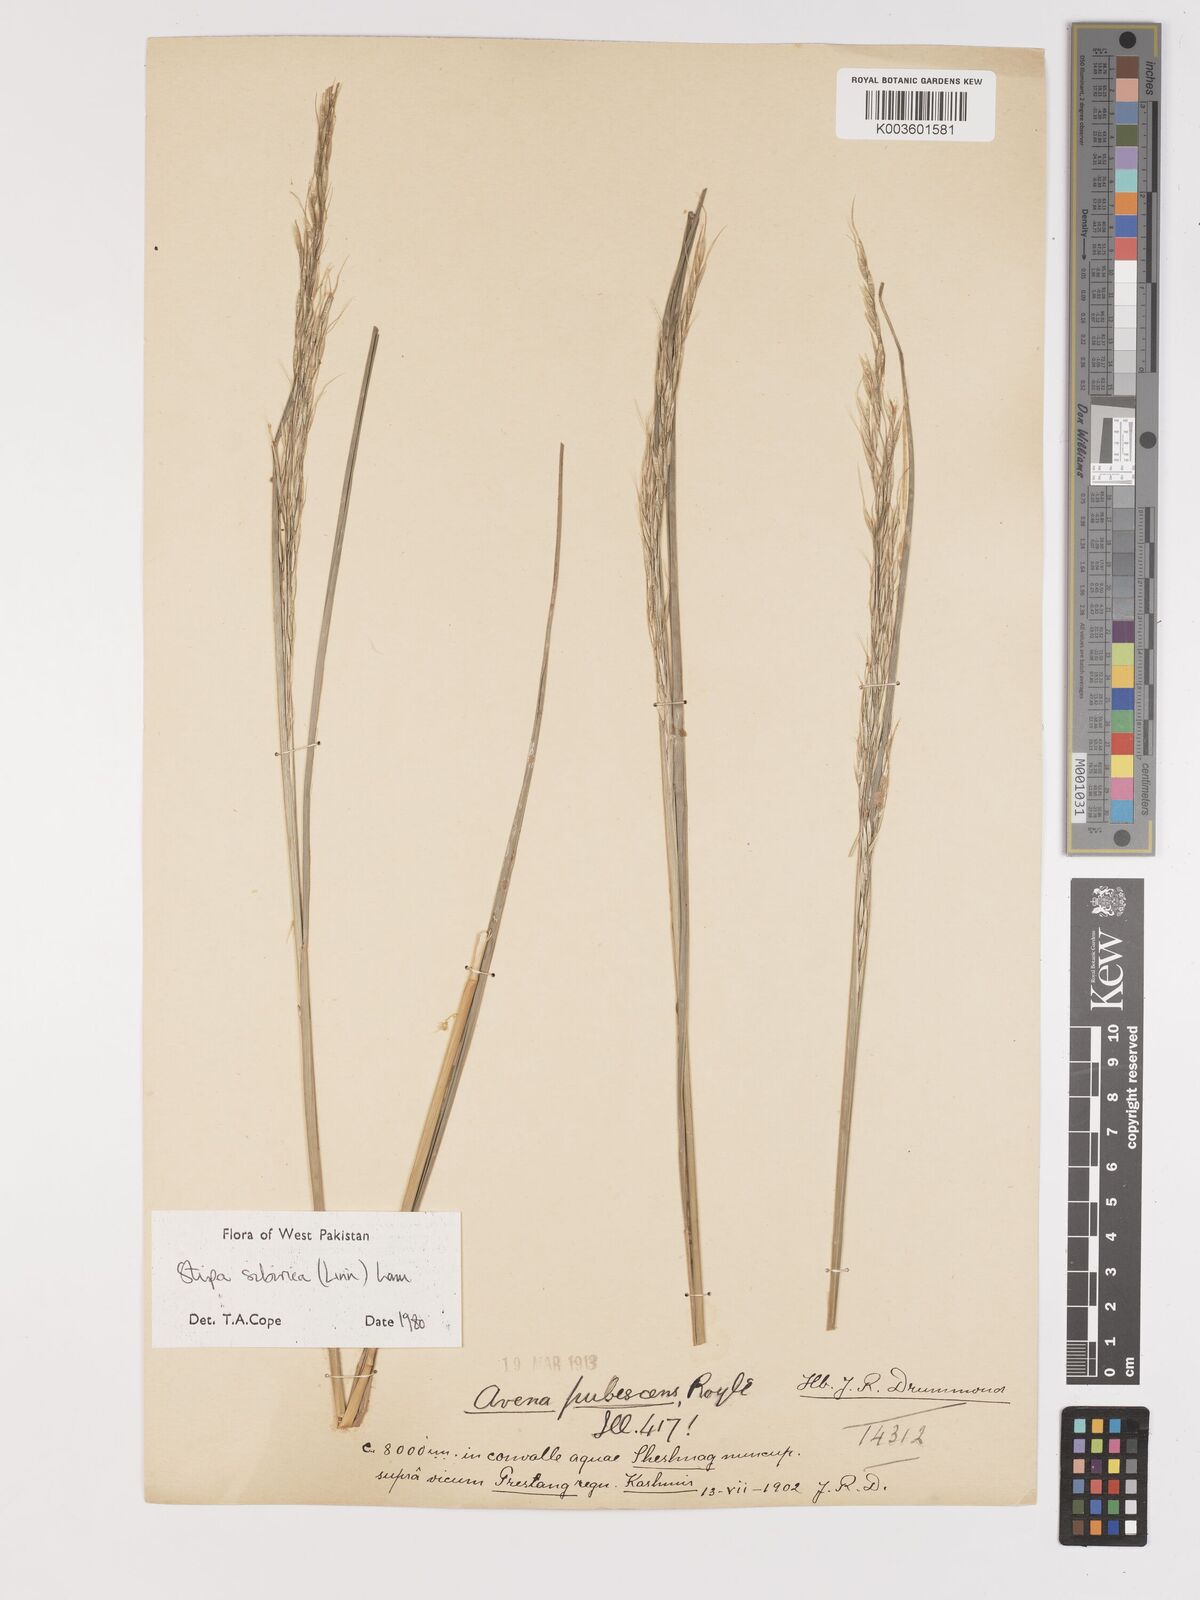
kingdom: Plantae
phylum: Tracheophyta
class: Liliopsida
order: Poales
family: Poaceae
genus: Achnatherum
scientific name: Achnatherum brandisii
